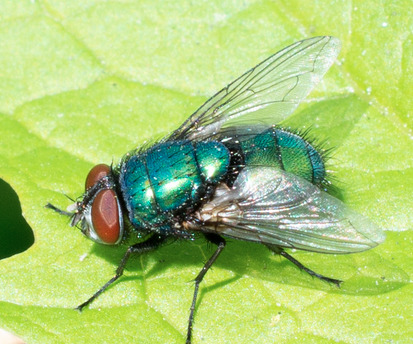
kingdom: Animalia
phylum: Arthropoda
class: Insecta
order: Diptera
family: Calliphoridae
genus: Lucilia
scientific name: Lucilia sericata
